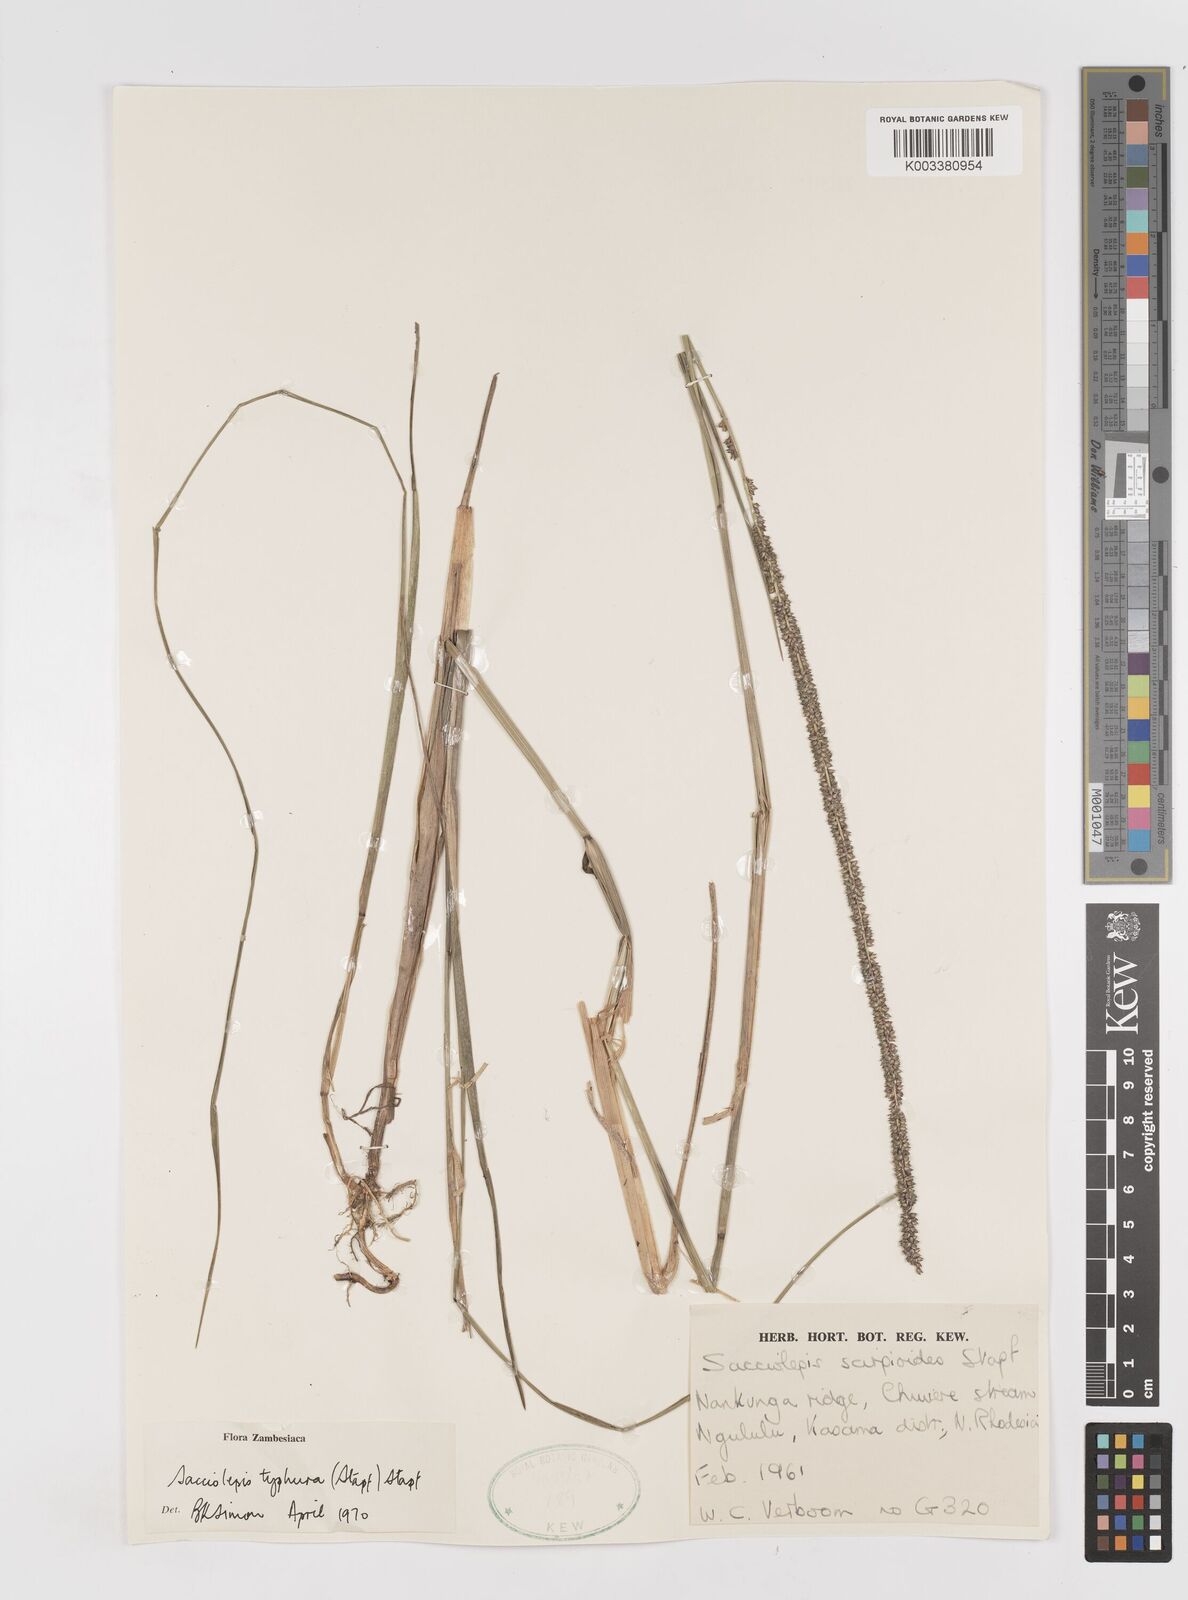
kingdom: Plantae
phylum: Tracheophyta
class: Liliopsida
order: Poales
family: Poaceae
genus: Sacciolepis
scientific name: Sacciolepis typhura
